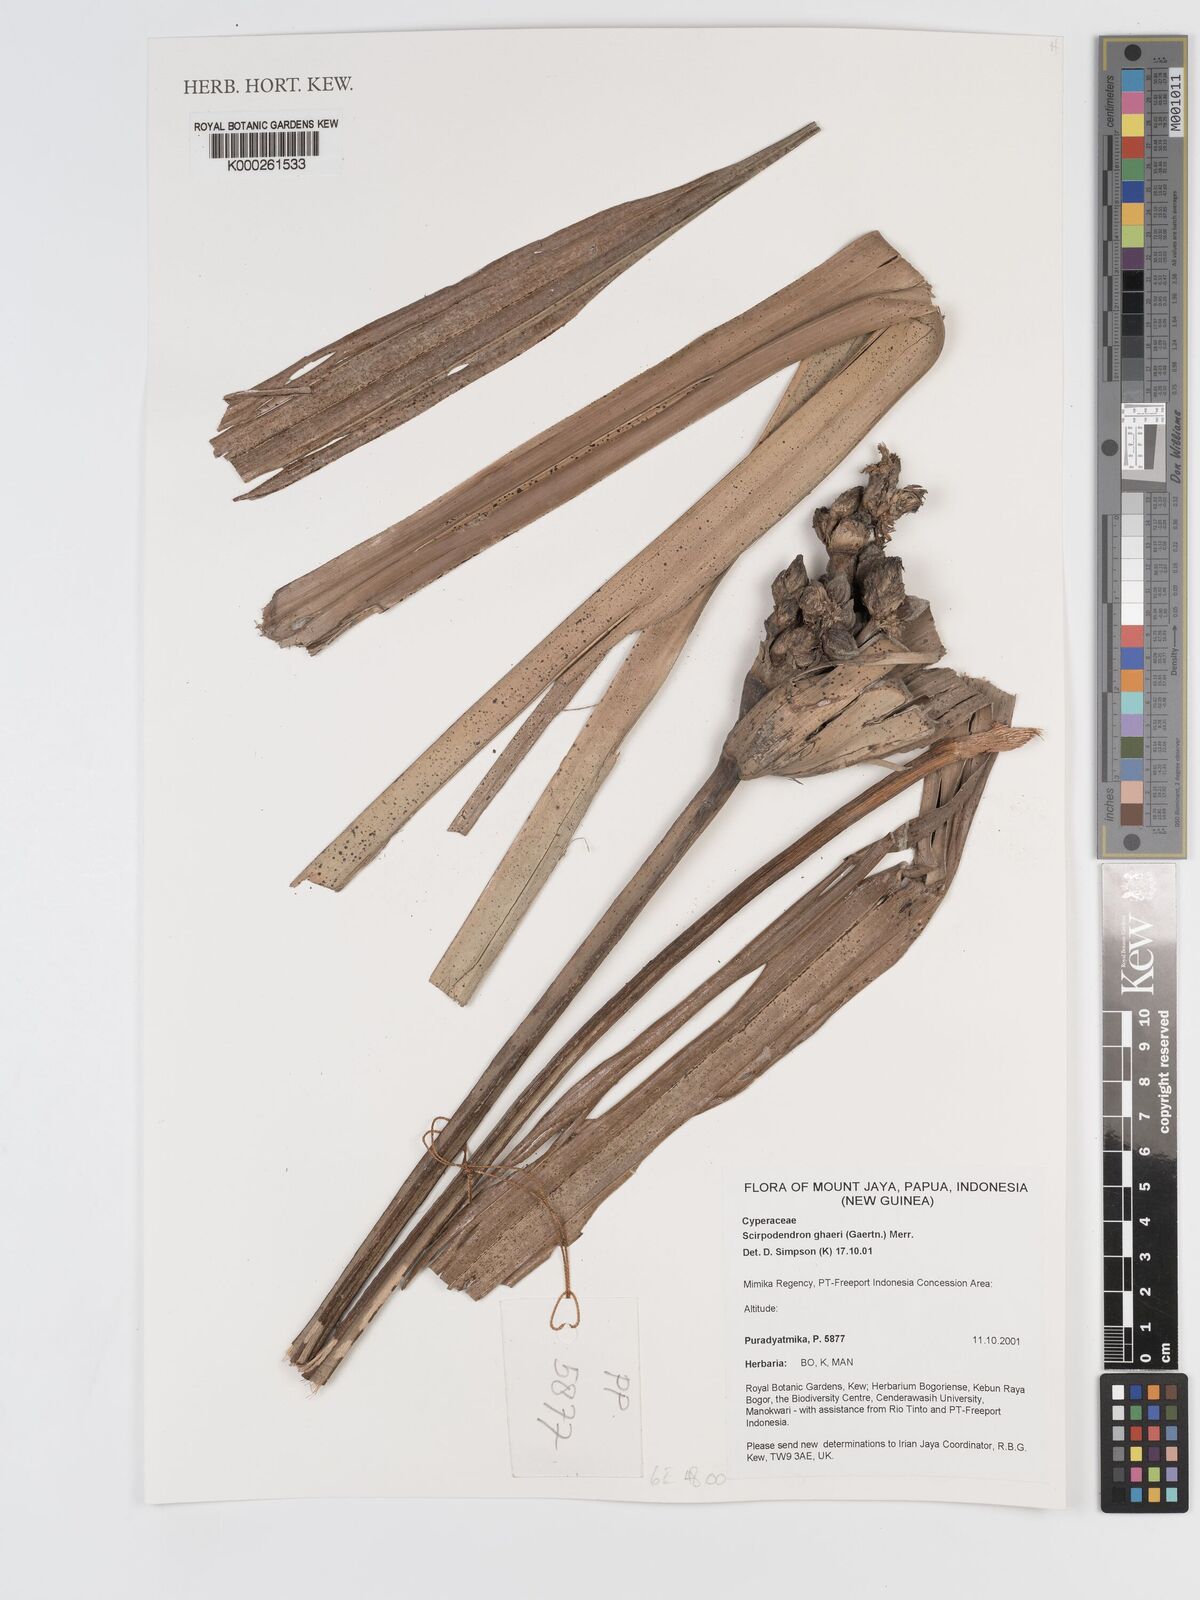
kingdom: Plantae
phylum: Tracheophyta
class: Liliopsida
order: Poales
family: Cyperaceae
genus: Scirpodendron
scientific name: Scirpodendron ghaeri
